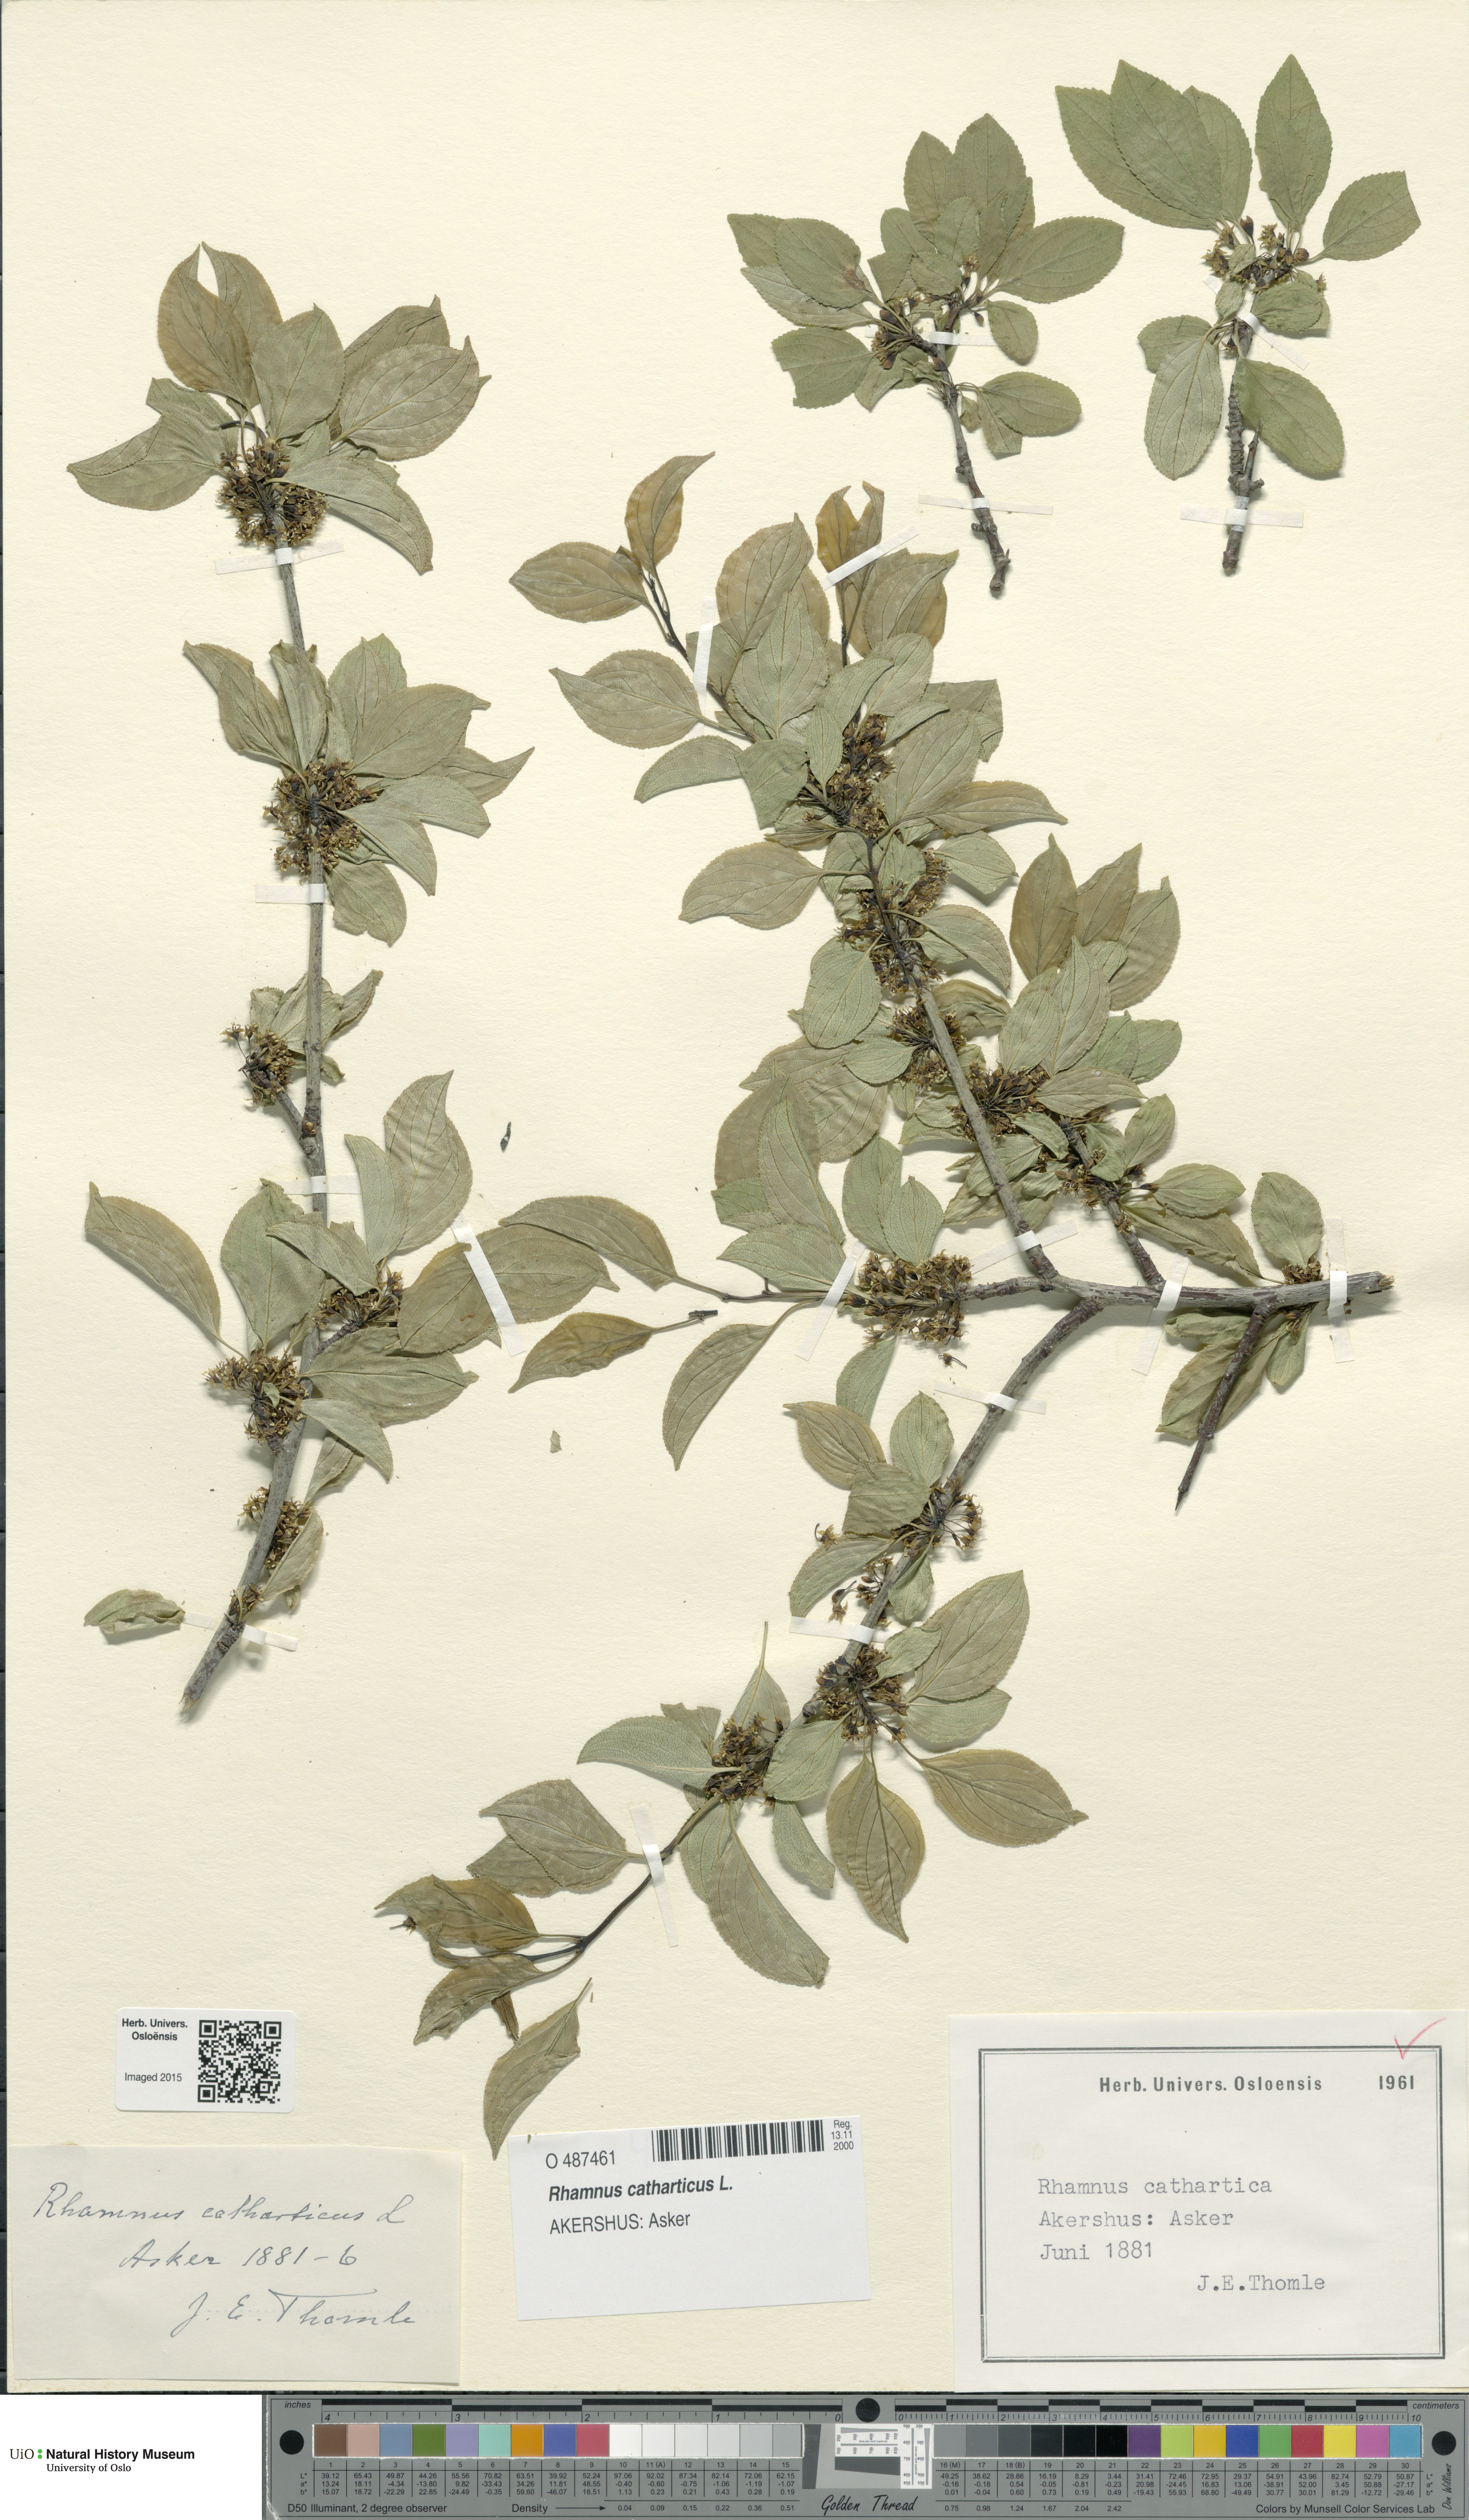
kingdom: Plantae
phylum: Tracheophyta
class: Magnoliopsida
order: Rosales
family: Rhamnaceae
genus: Rhamnus
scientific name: Rhamnus cathartica
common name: Common buckthorn
